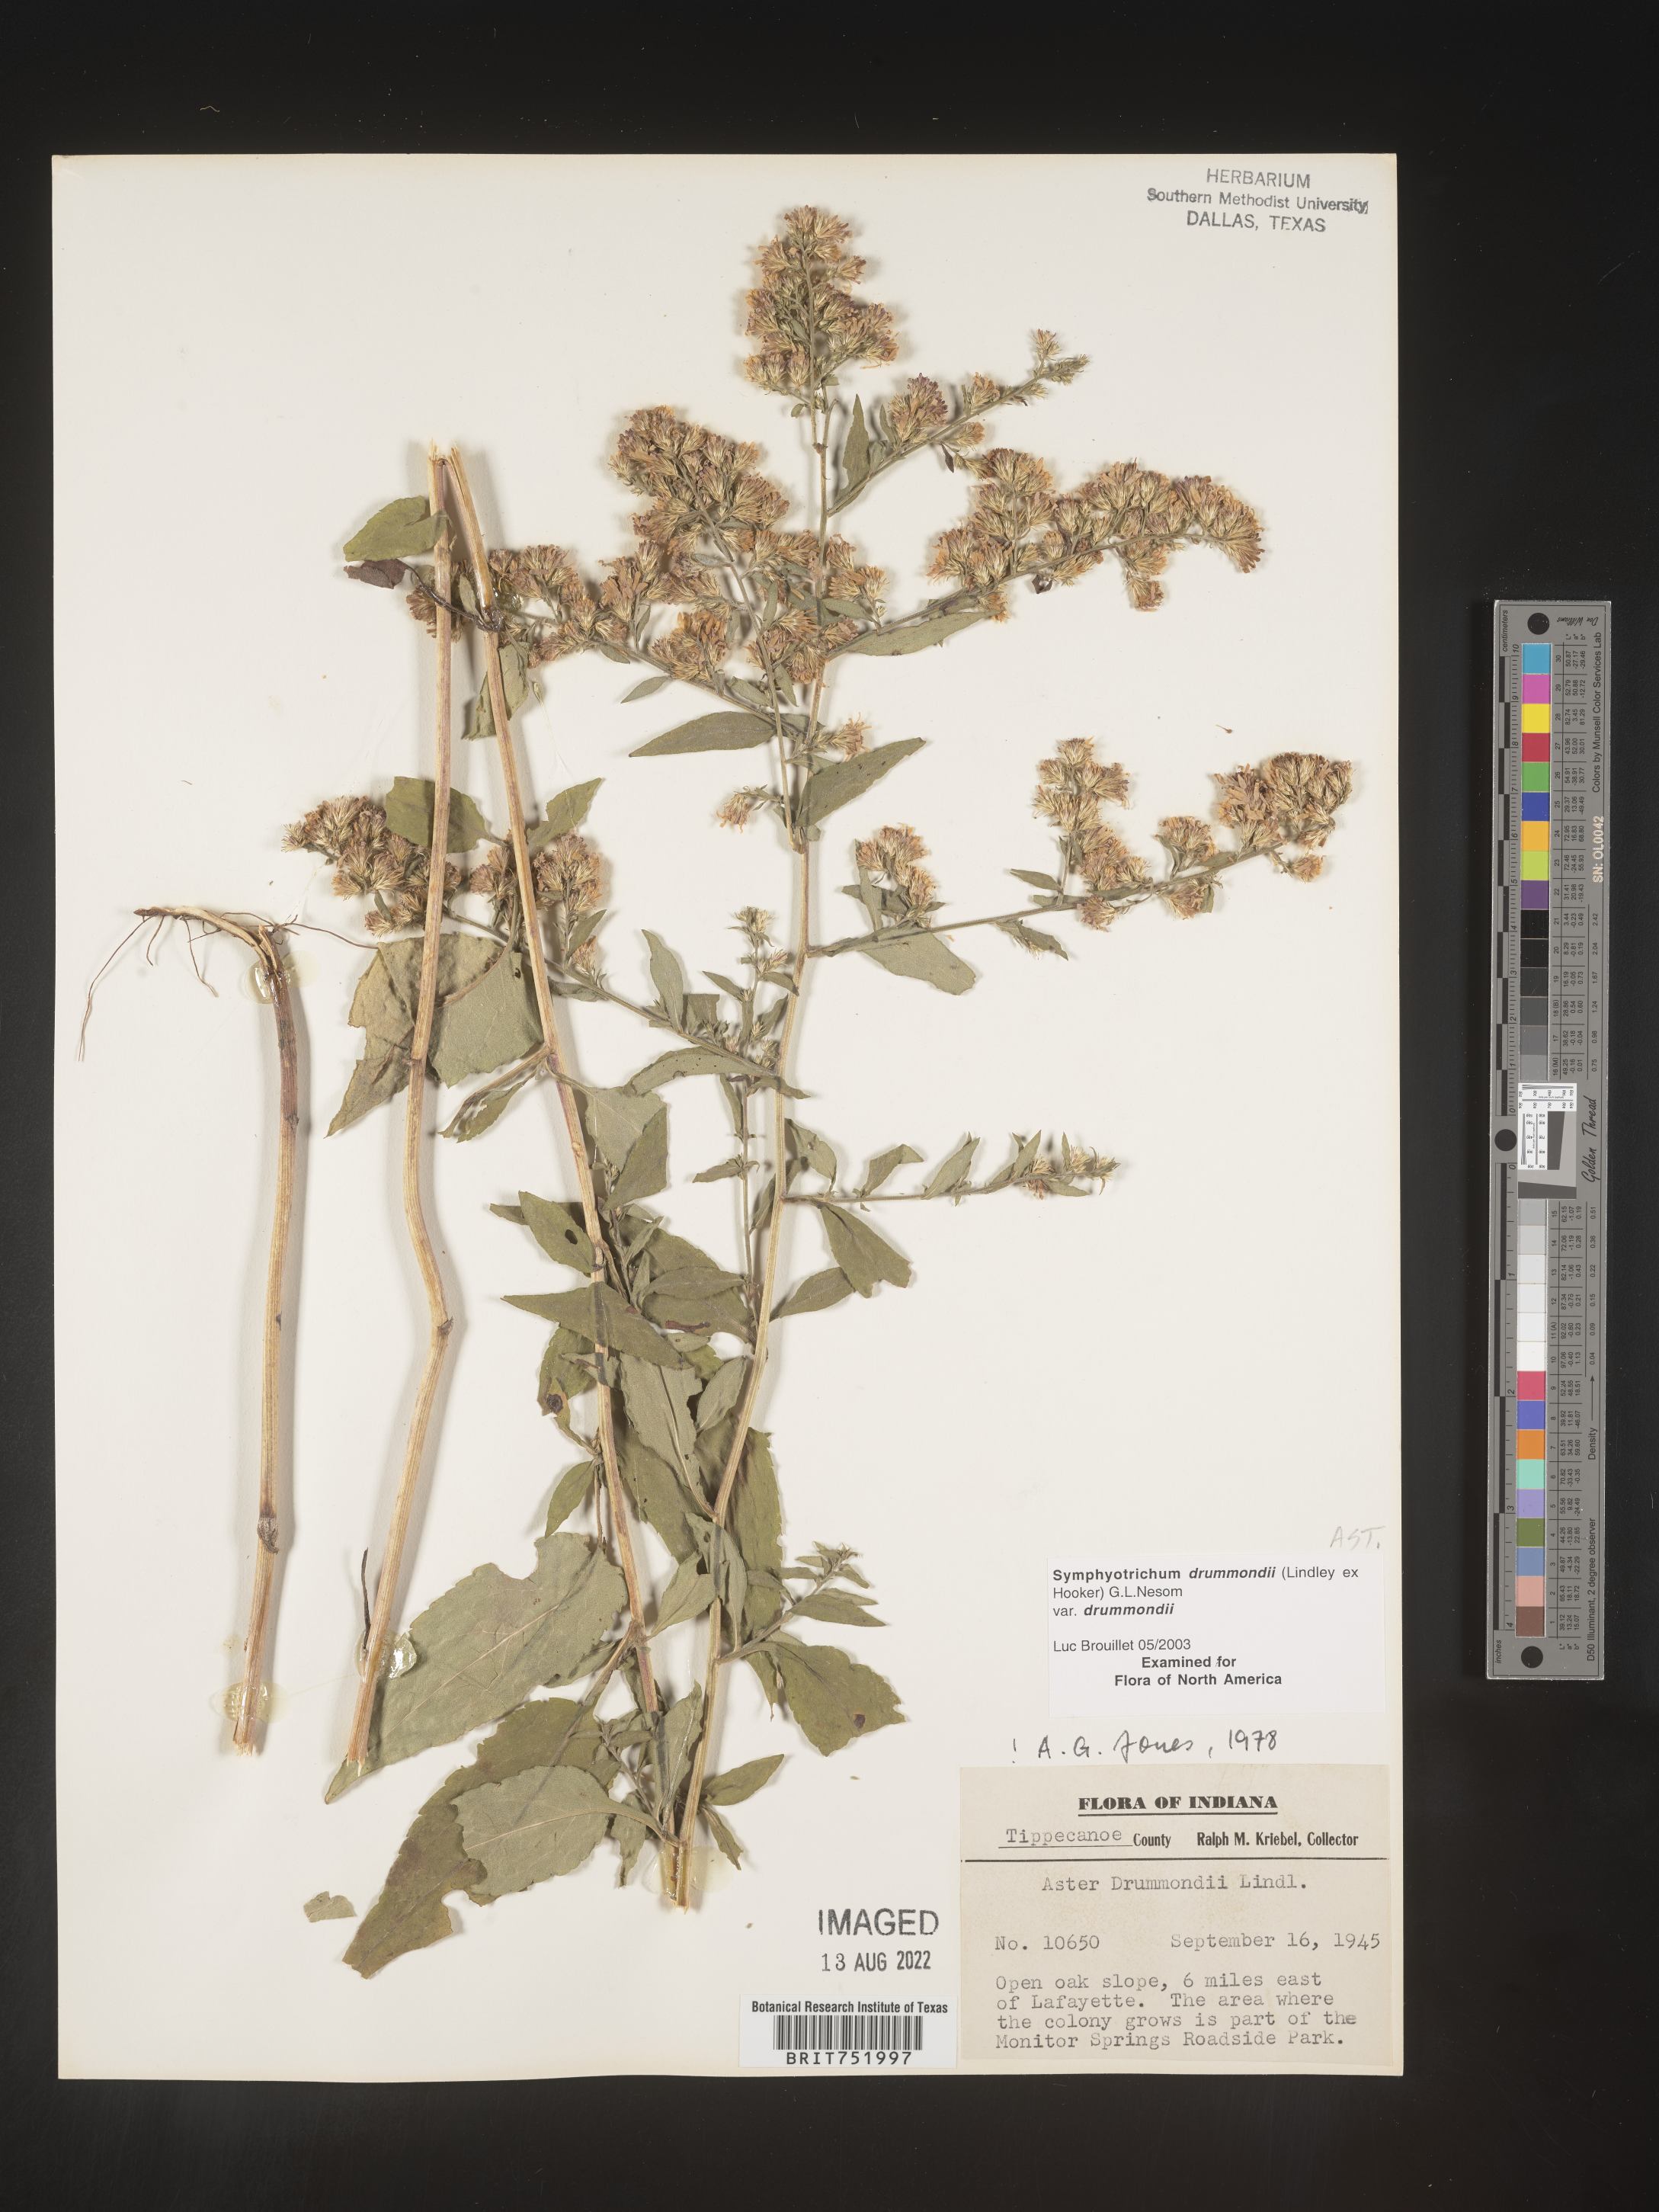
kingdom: Plantae
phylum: Tracheophyta
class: Magnoliopsida
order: Asterales
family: Asteraceae
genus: Symphyotrichum
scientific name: Symphyotrichum drummondii
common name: Drummond's aster
